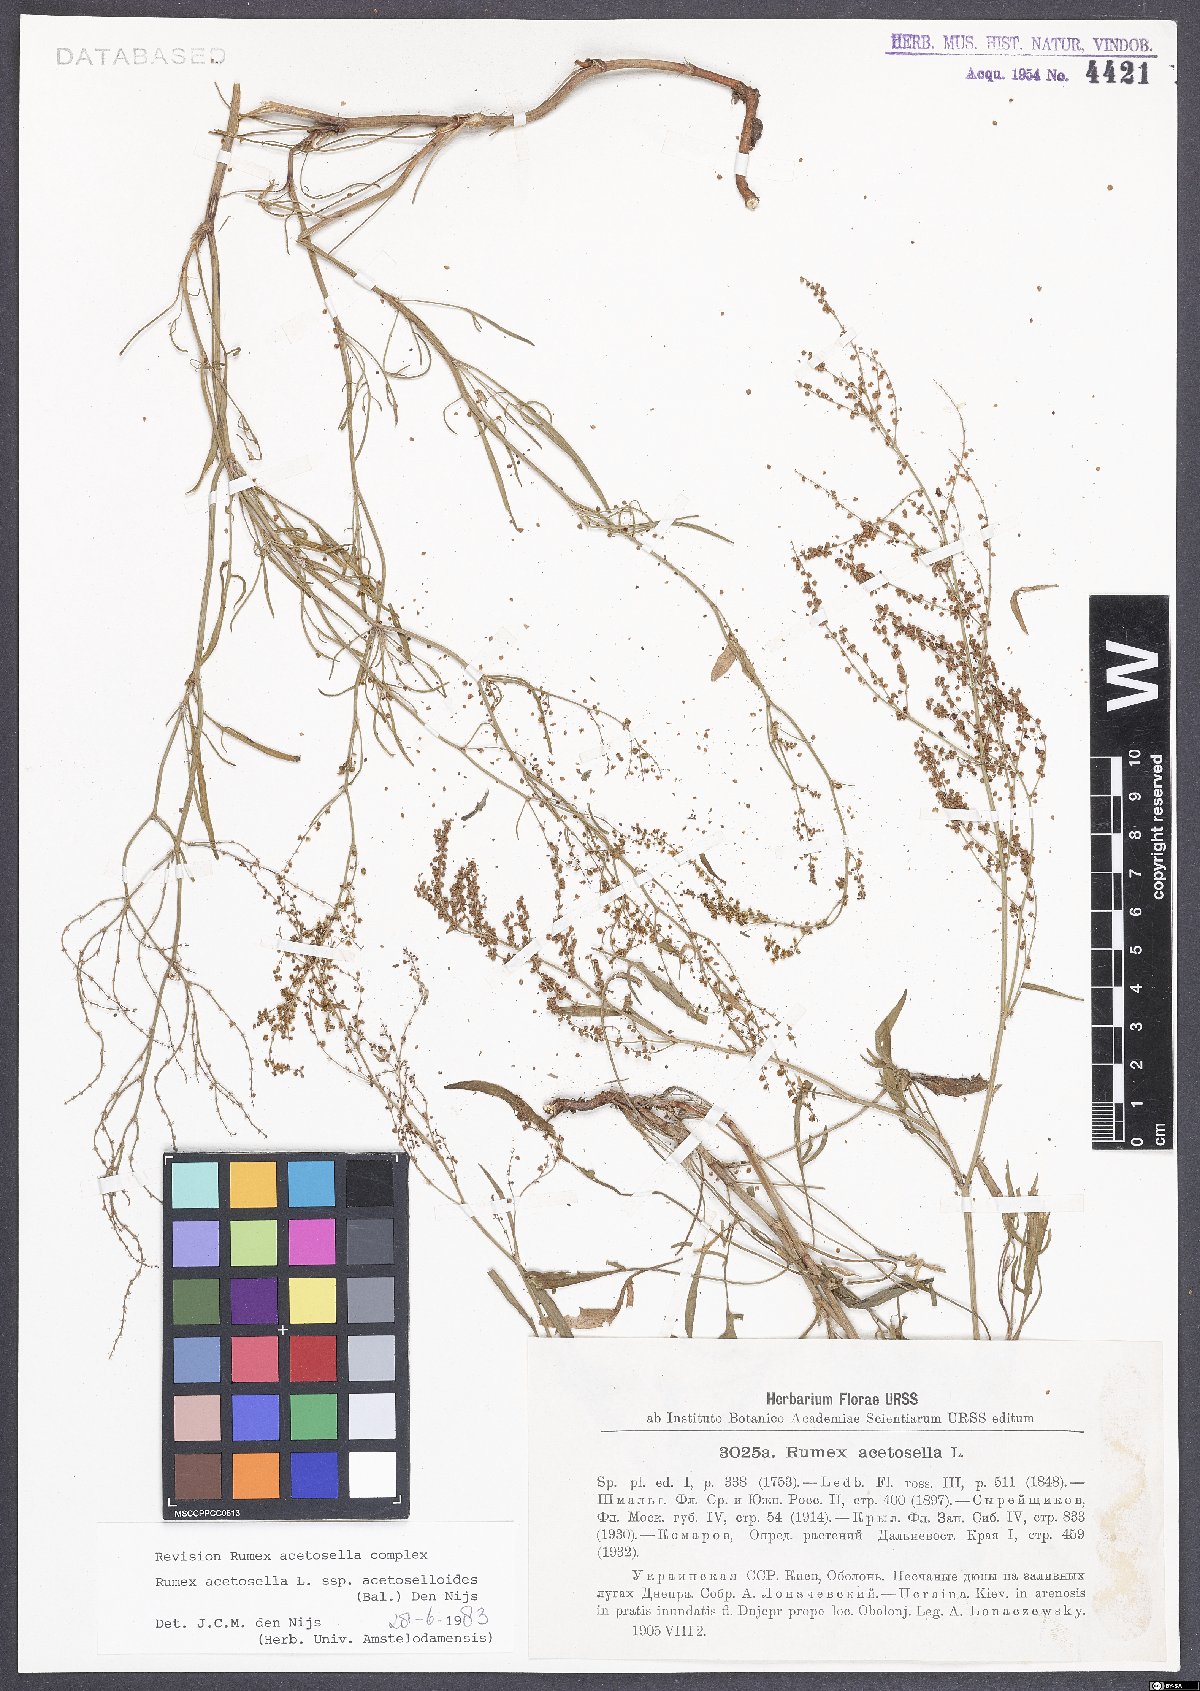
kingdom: Plantae
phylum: Tracheophyta
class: Magnoliopsida
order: Caryophyllales
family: Polygonaceae
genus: Rumex
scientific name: Rumex acetosella
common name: Common sheep sorrel
